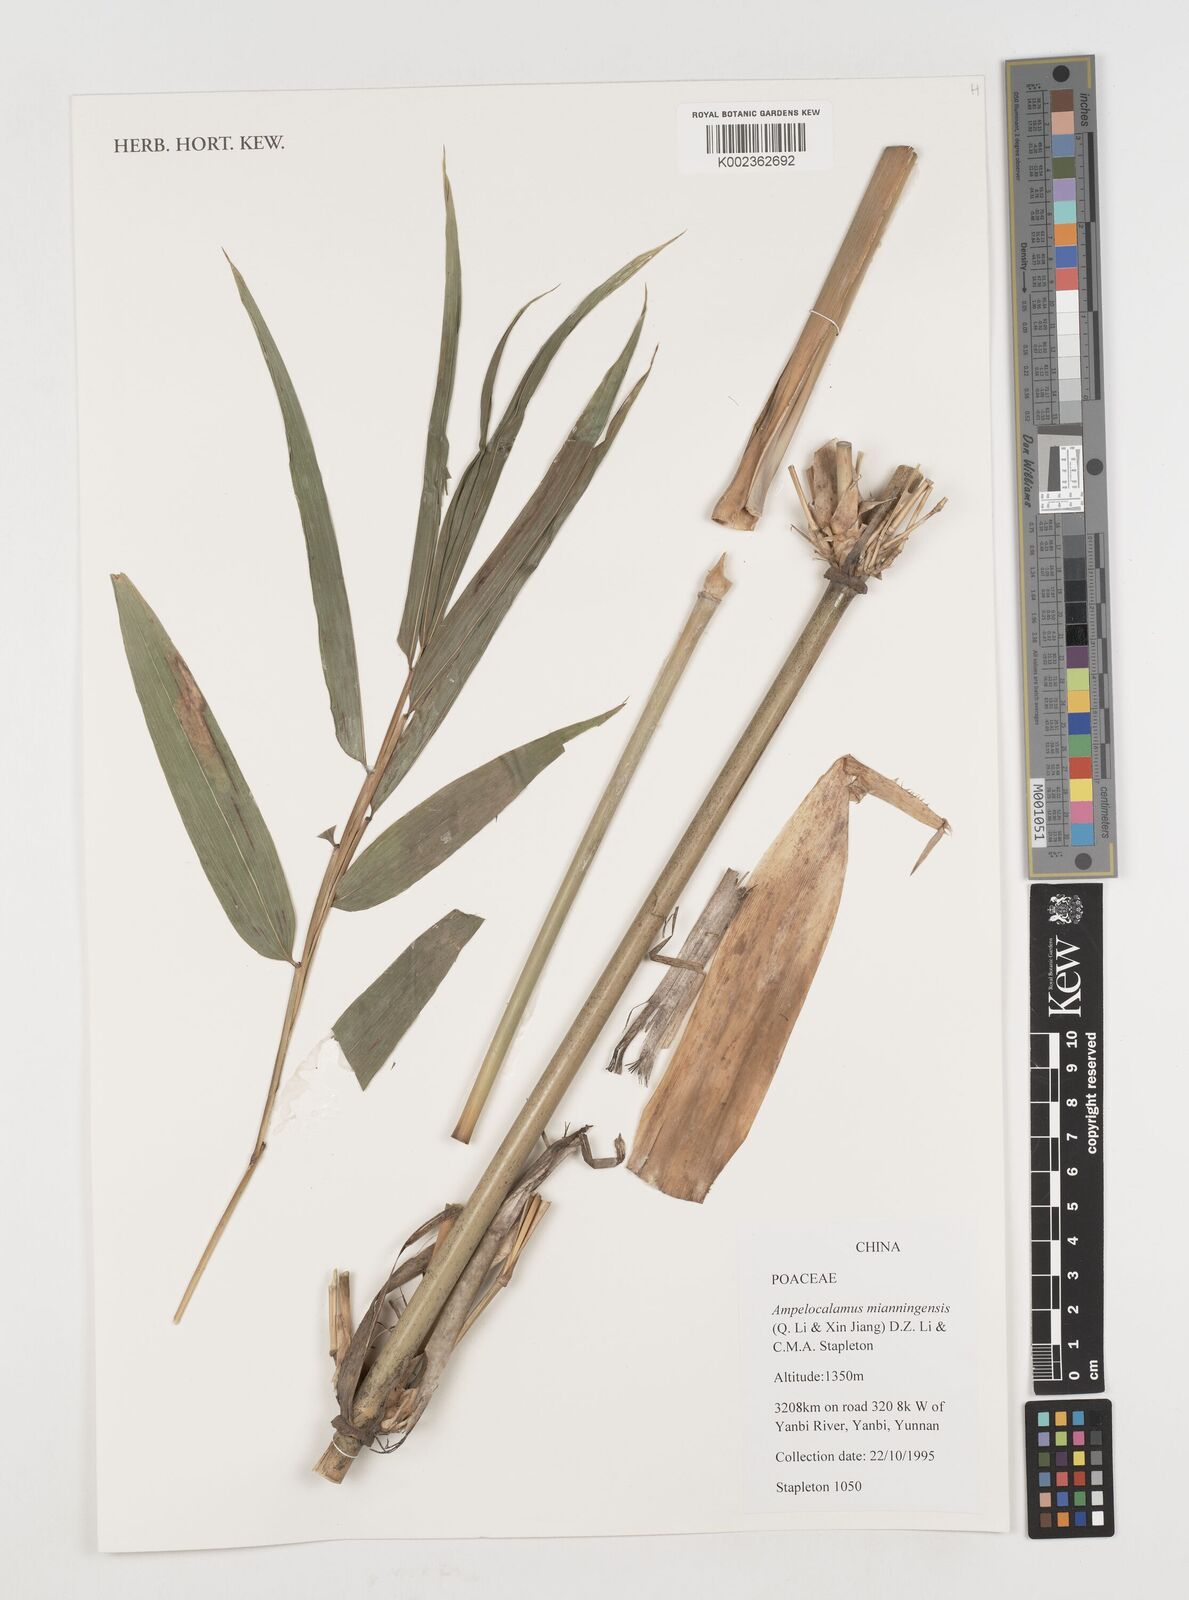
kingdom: Plantae
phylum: Tracheophyta
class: Liliopsida
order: Poales
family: Poaceae
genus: Acidosasa
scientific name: Acidosasa
